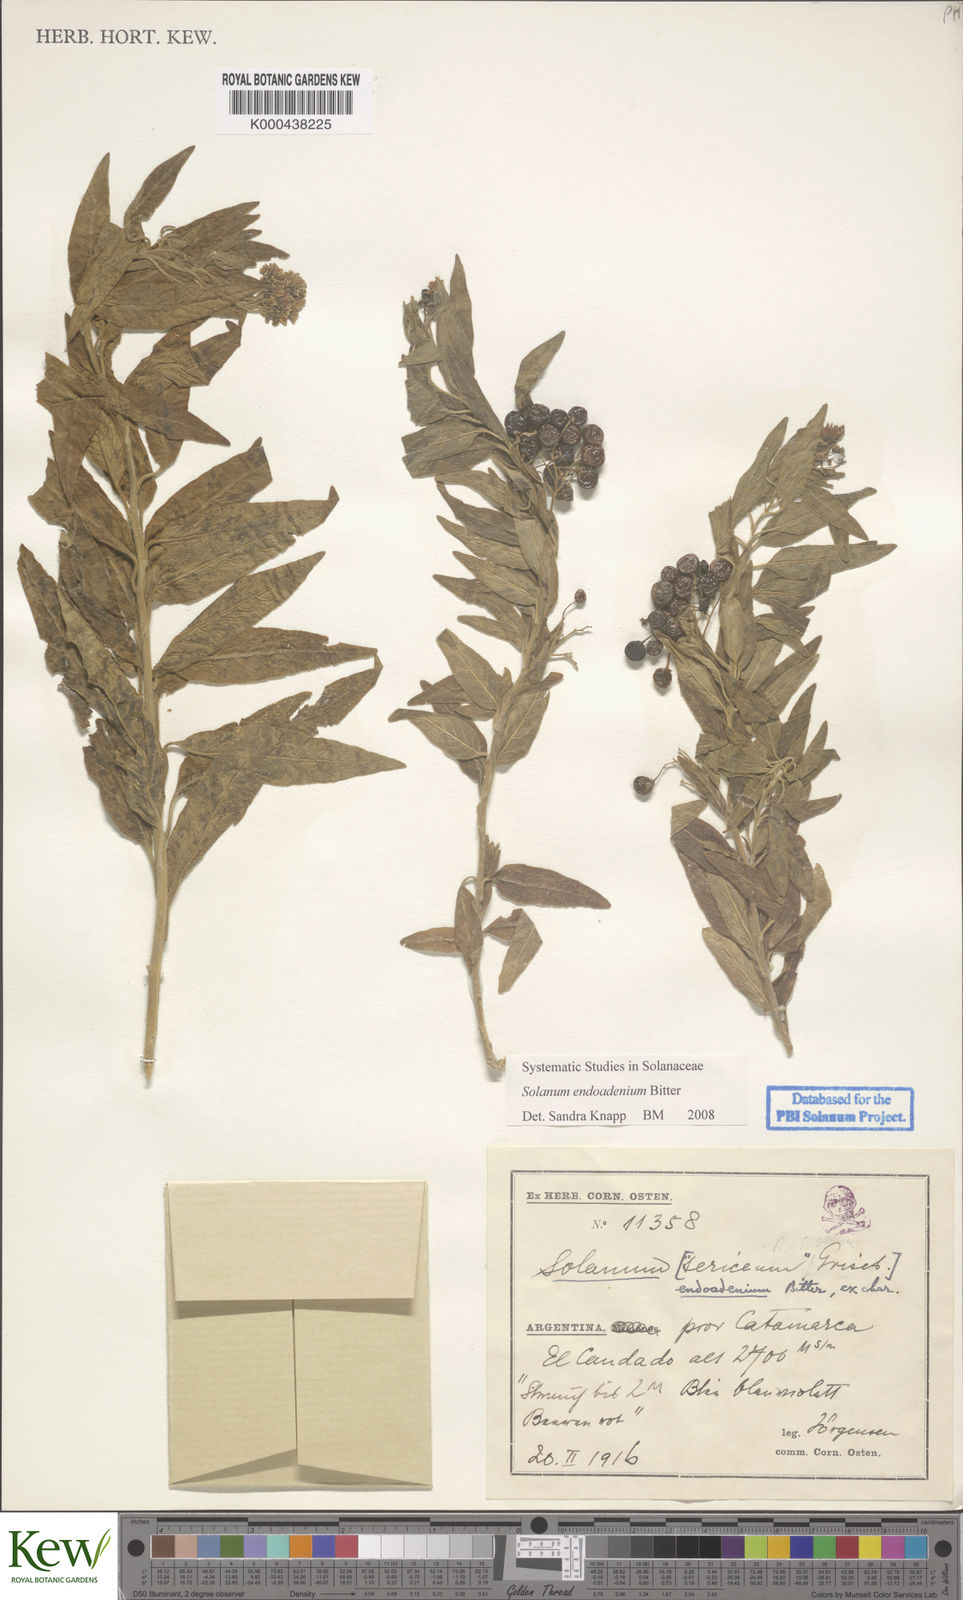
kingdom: Plantae
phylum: Tracheophyta
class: Magnoliopsida
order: Solanales
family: Solanaceae
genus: Solanum
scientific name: Solanum endoadenium
